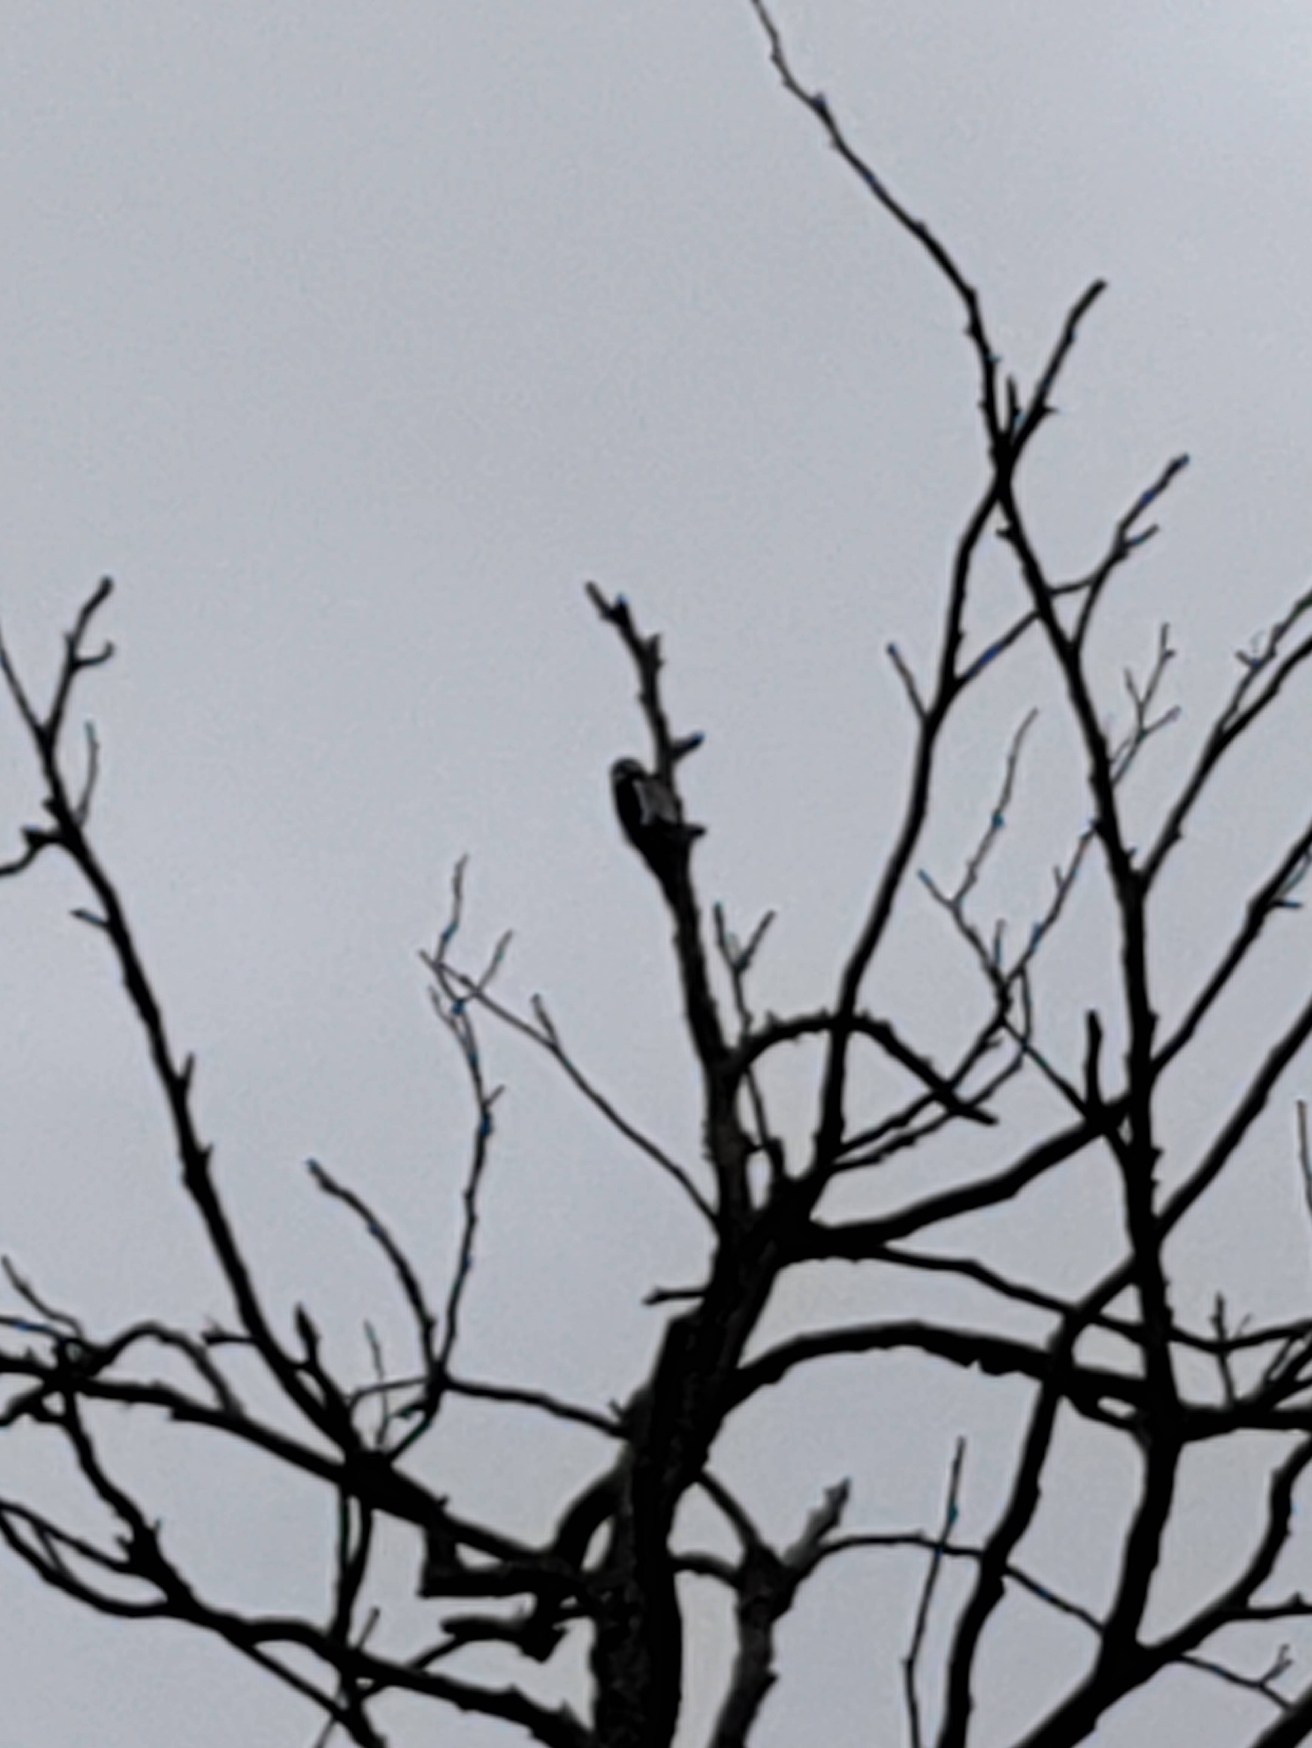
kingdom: Animalia
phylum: Chordata
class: Aves
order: Piciformes
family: Picidae
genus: Dendrocopos
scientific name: Dendrocopos major
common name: Stor flagspætte
